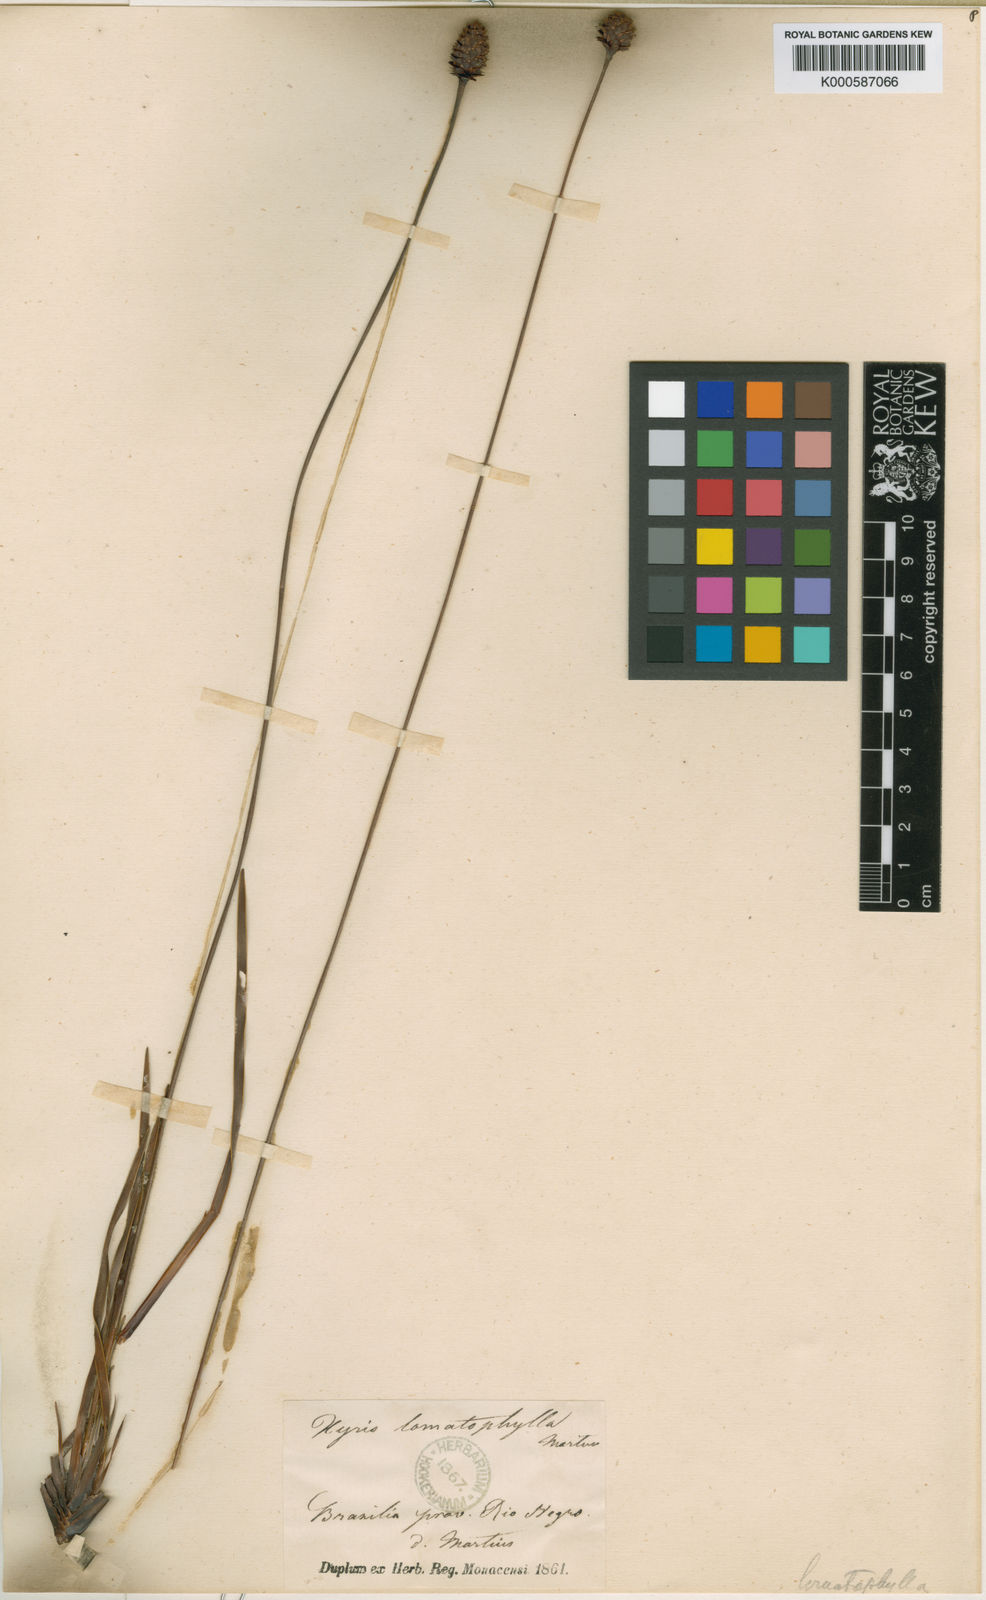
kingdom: Plantae
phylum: Tracheophyta
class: Liliopsida
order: Poales
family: Xyridaceae
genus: Xyris
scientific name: Xyris lomatophylla
